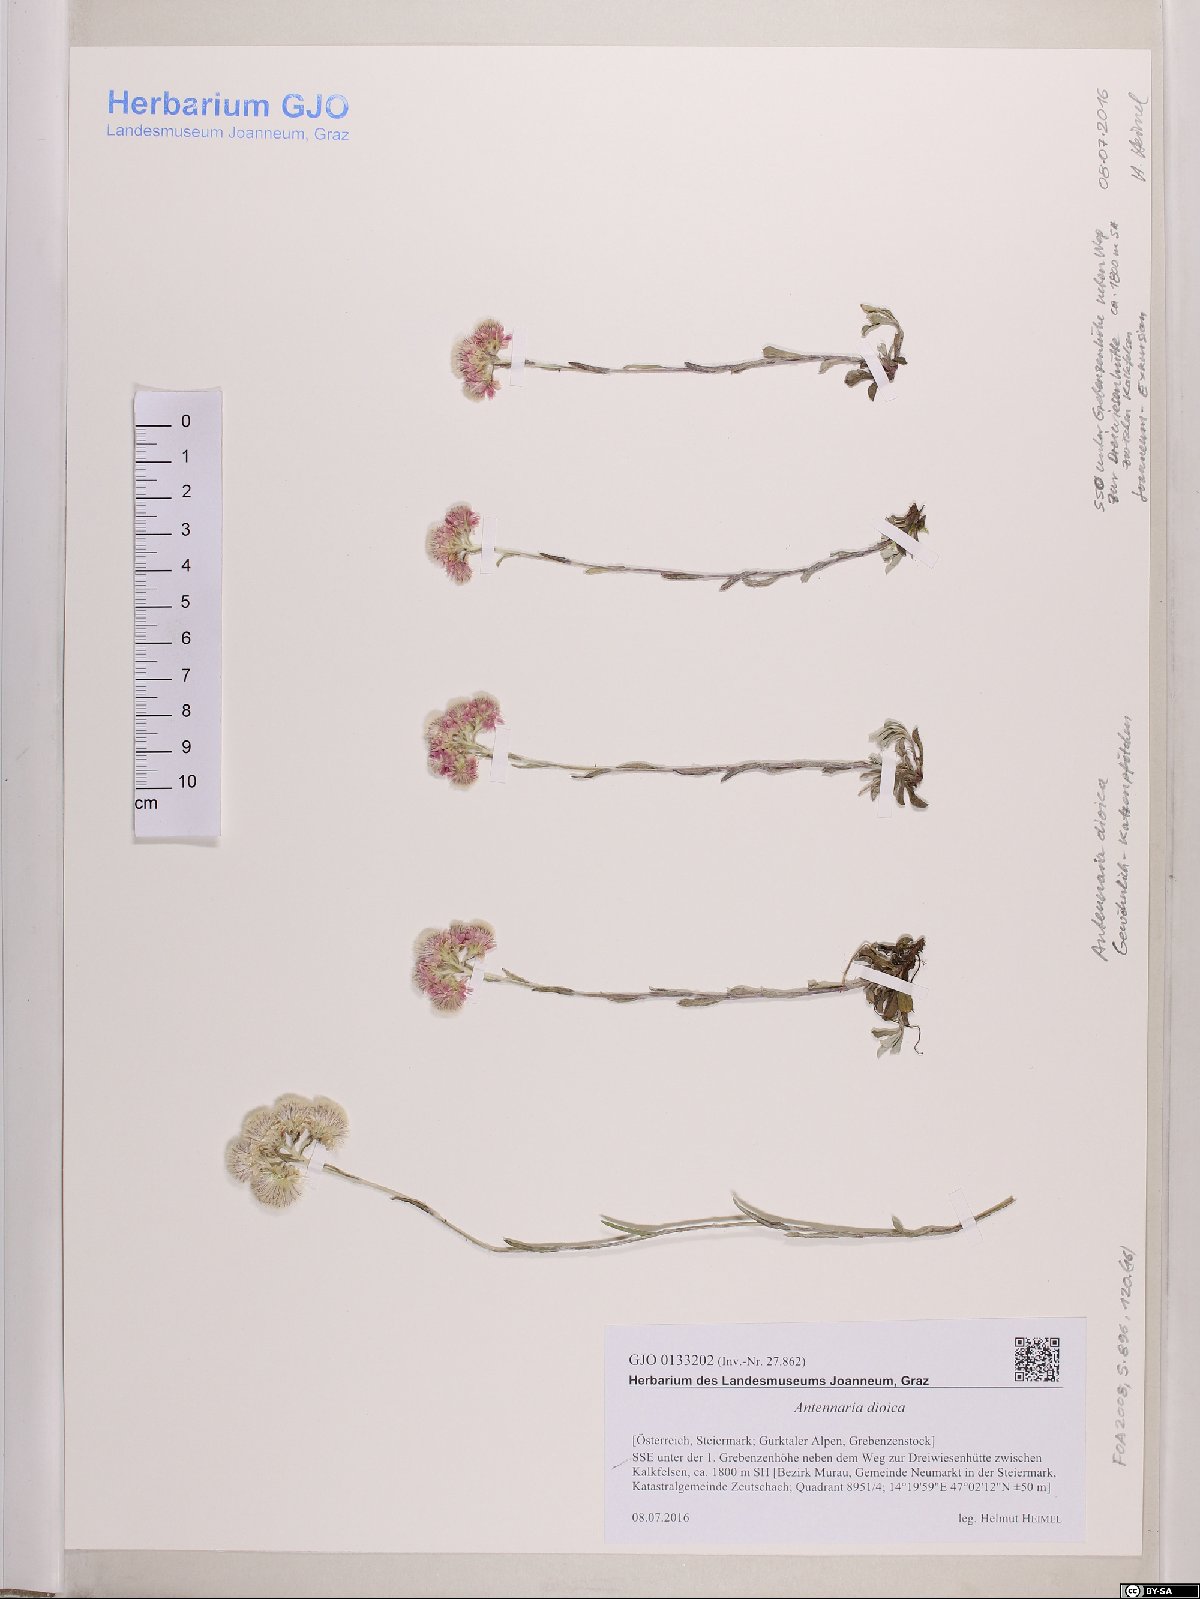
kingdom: Plantae
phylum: Tracheophyta
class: Magnoliopsida
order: Asterales
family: Asteraceae
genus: Antennaria
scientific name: Antennaria dioica
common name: Mountain everlasting
